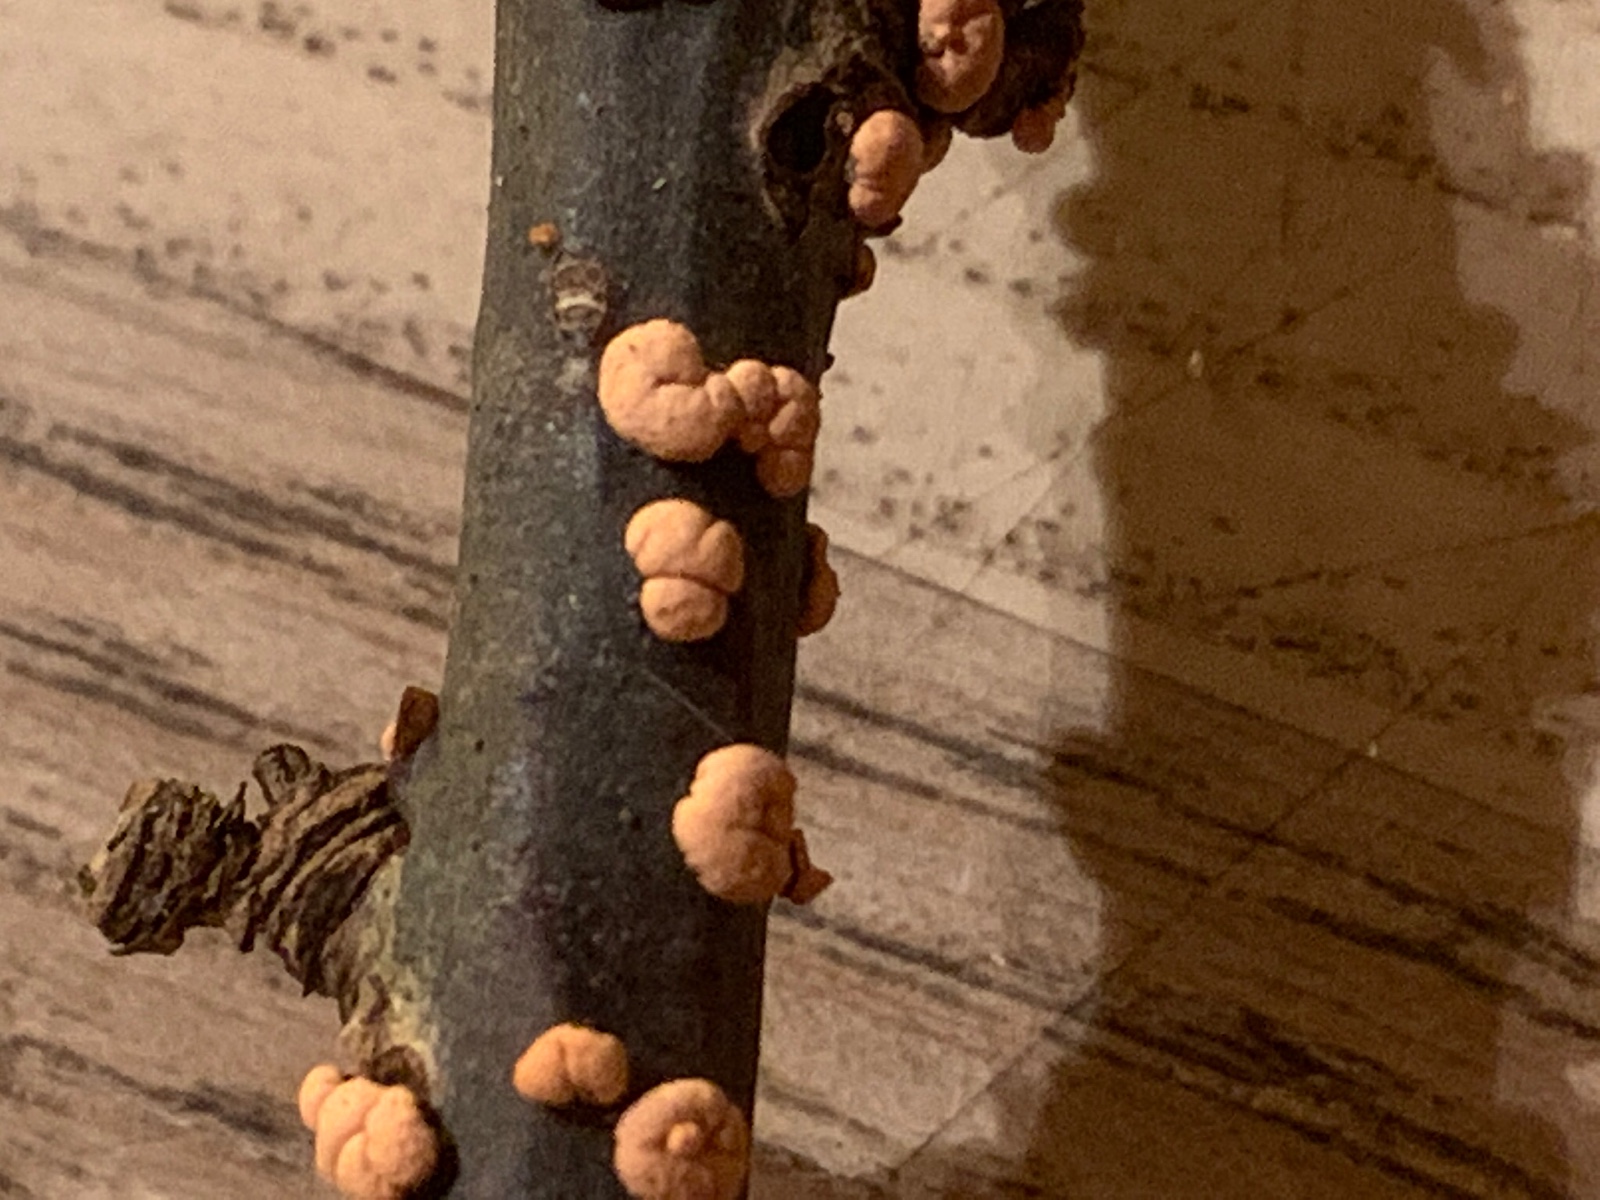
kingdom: Fungi
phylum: Ascomycota
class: Sordariomycetes
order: Hypocreales
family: Nectriaceae
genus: Nectria
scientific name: Nectria cinnabarina
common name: almindelig cinnobersvamp
